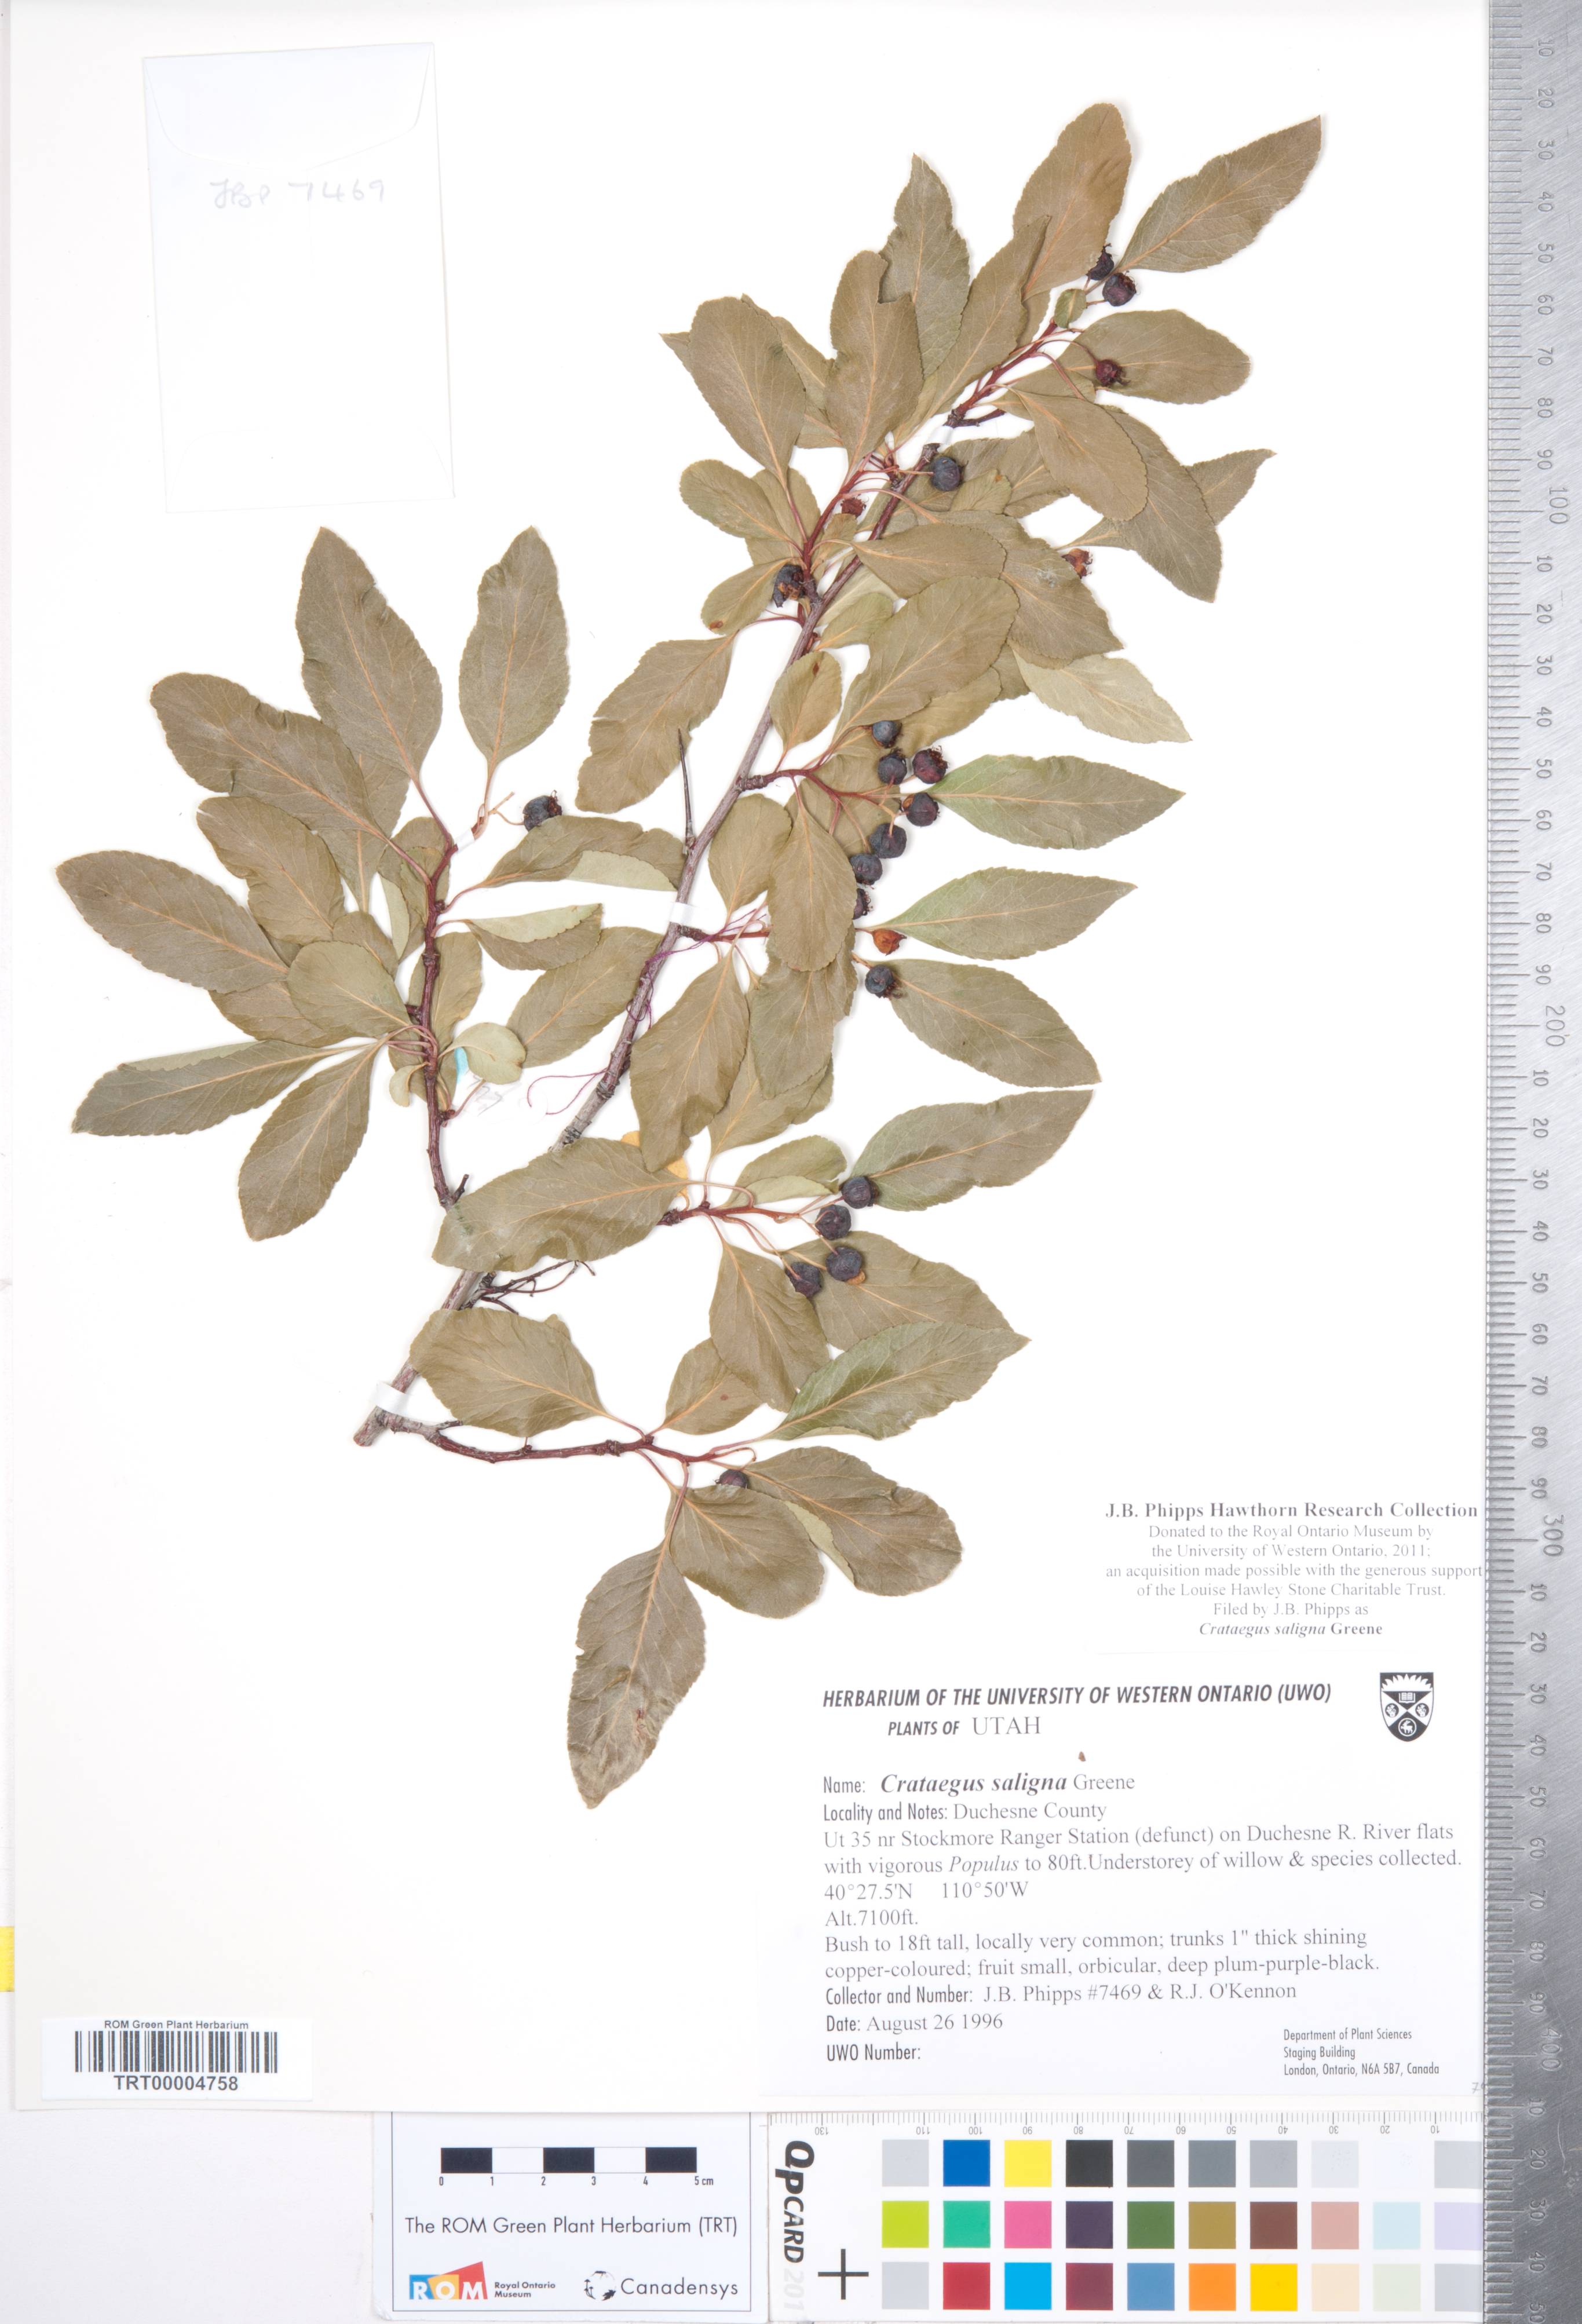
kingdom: Plantae
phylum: Tracheophyta
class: Magnoliopsida
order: Rosales
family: Rosaceae
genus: Crataegus
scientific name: Crataegus saligna
